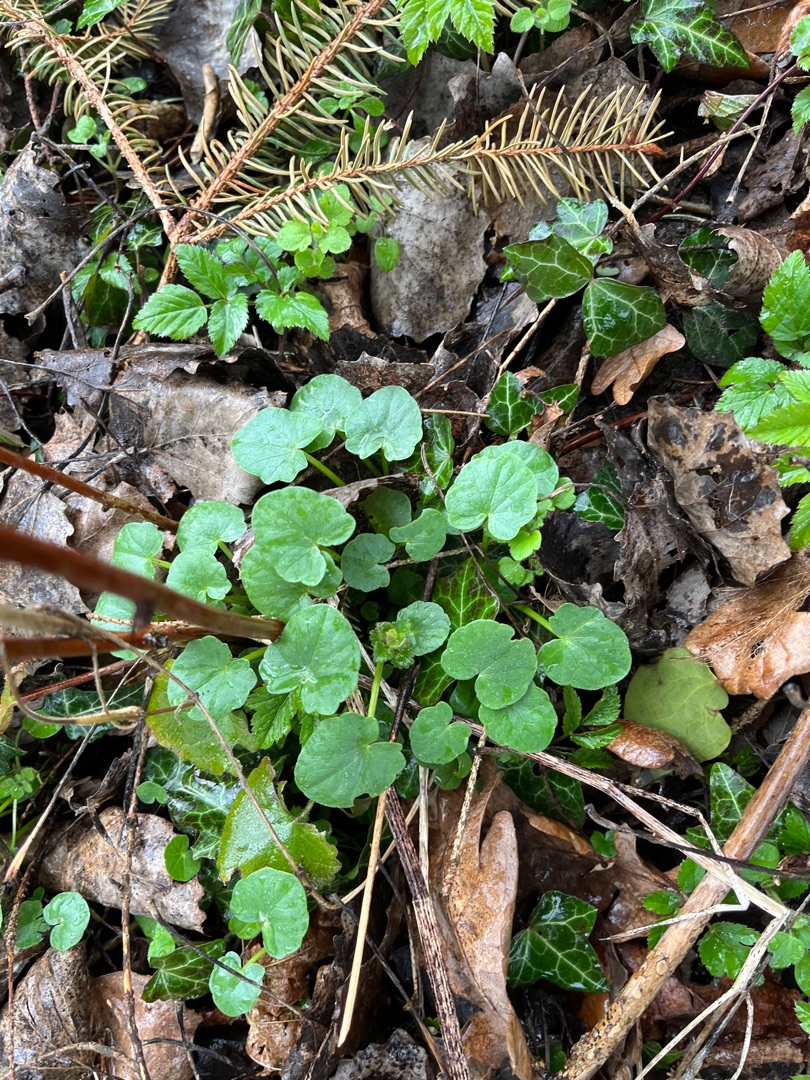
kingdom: Plantae
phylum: Tracheophyta
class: Magnoliopsida
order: Ranunculales
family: Ranunculaceae
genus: Ficaria
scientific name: Ficaria verna
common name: Vorterod
